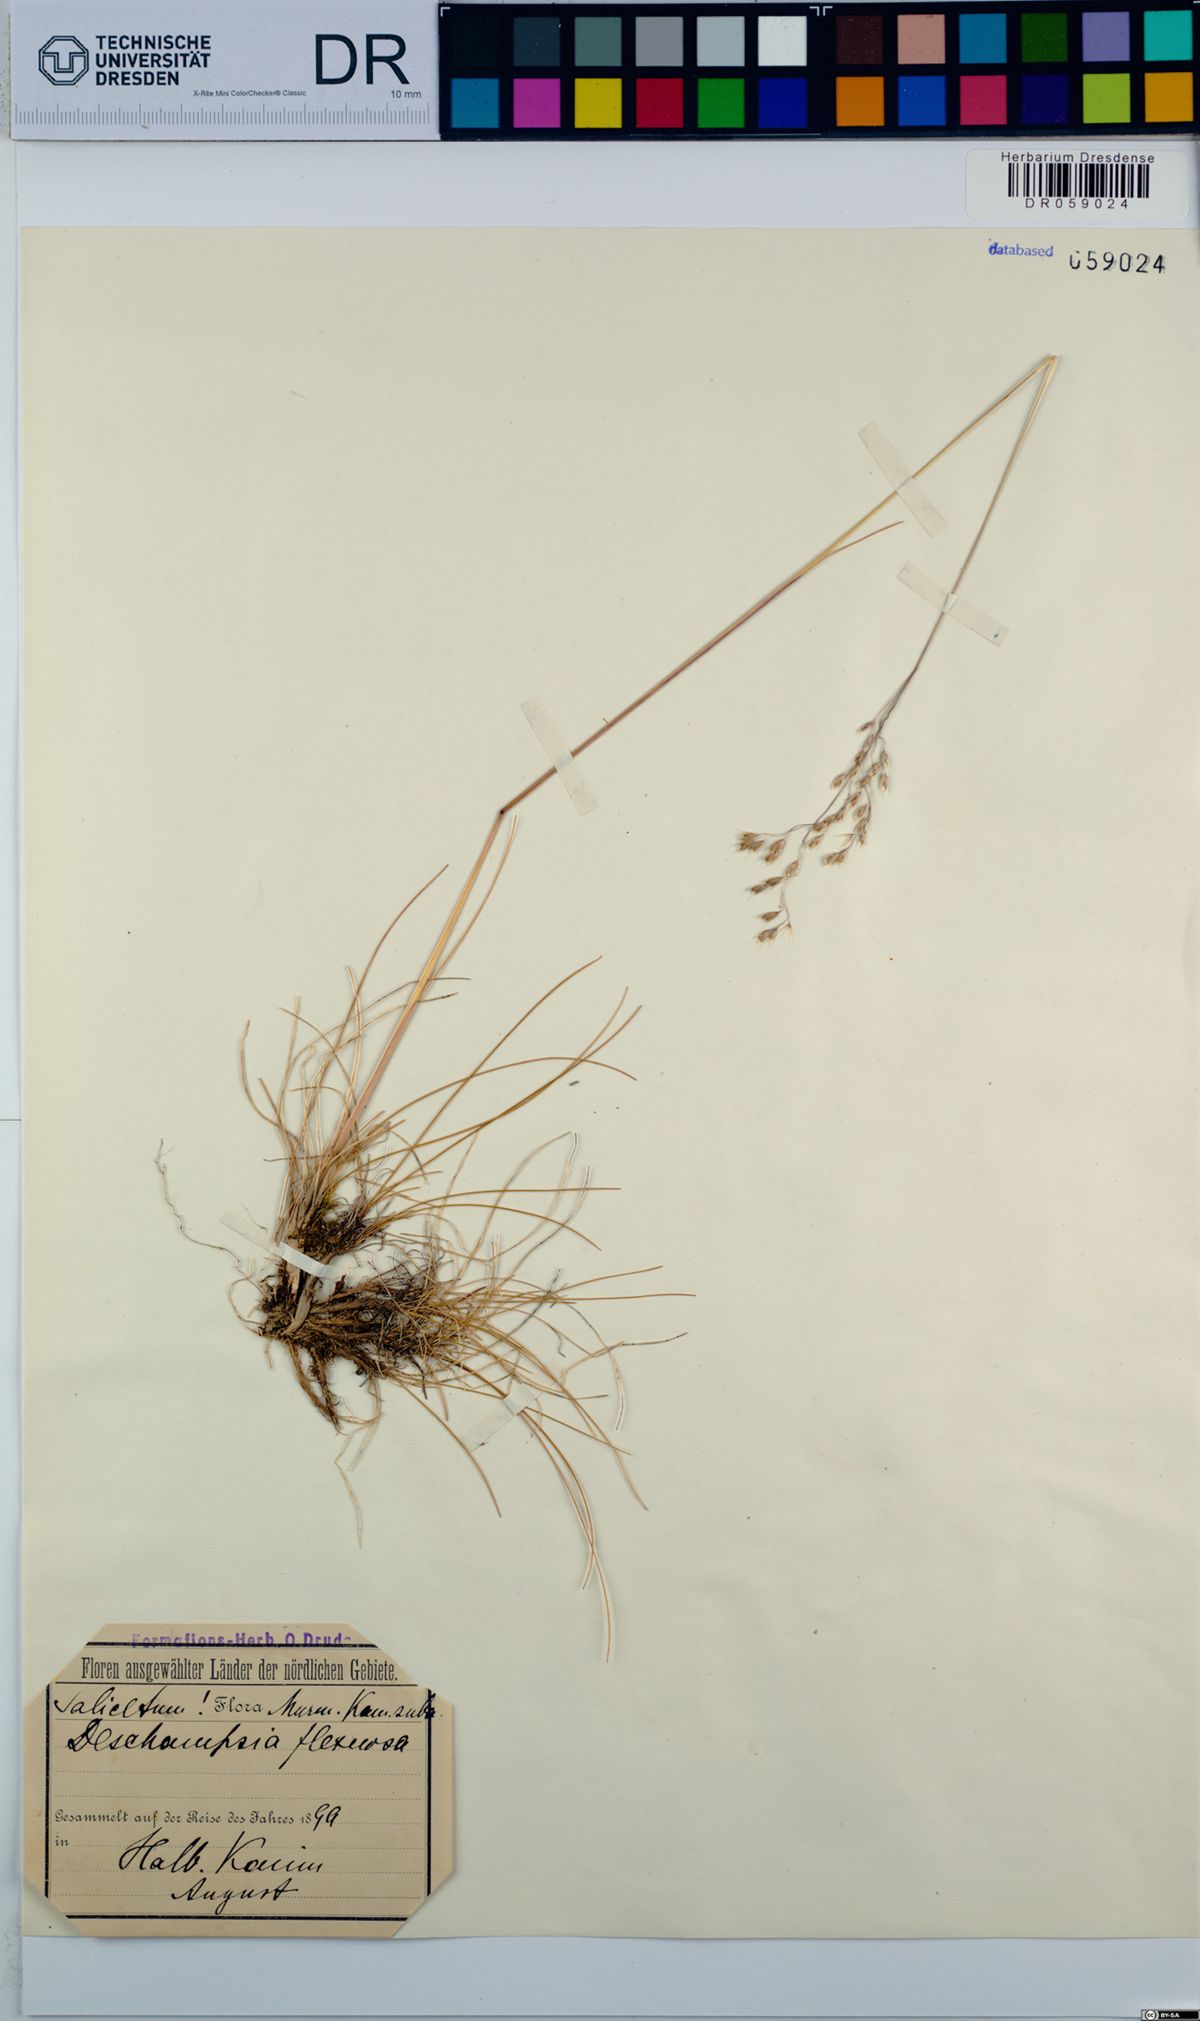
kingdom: Plantae
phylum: Tracheophyta
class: Liliopsida
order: Poales
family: Poaceae
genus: Avenella
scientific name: Avenella flexuosa
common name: Wavy hairgrass
